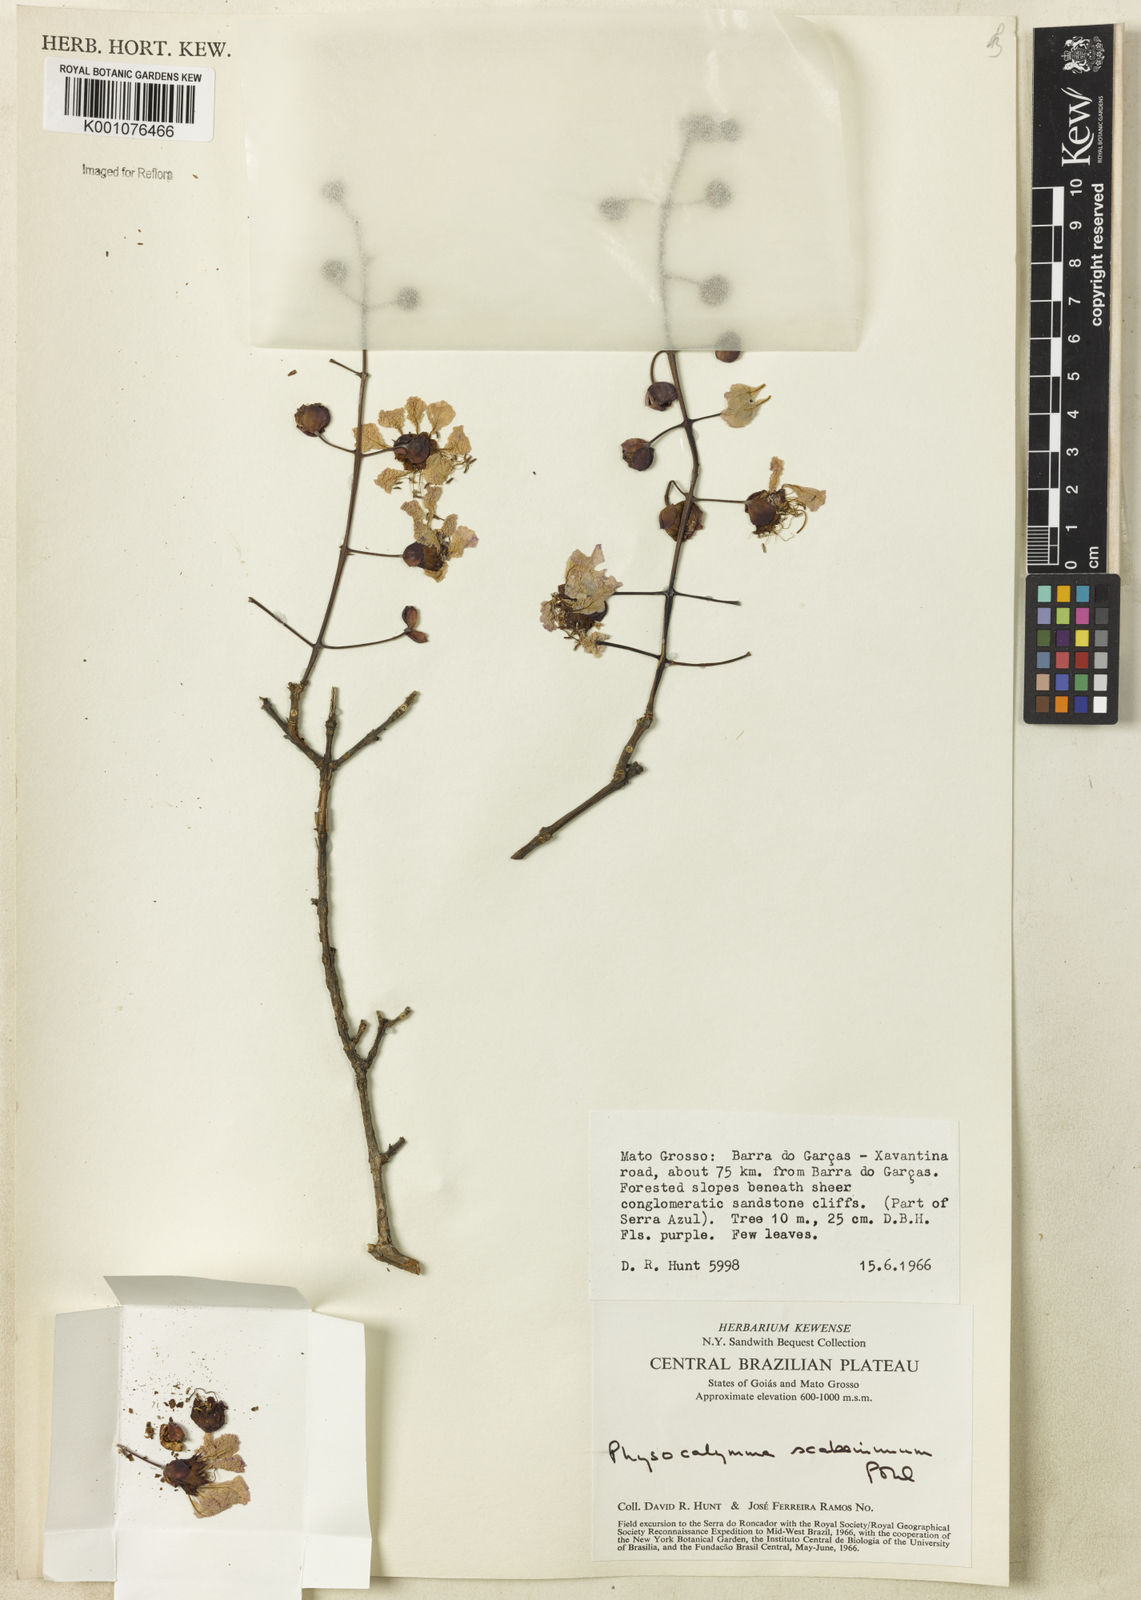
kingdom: Plantae
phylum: Tracheophyta
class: Magnoliopsida
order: Myrtales
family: Lythraceae
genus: Physocalymma
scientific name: Physocalymma scaberrimum
